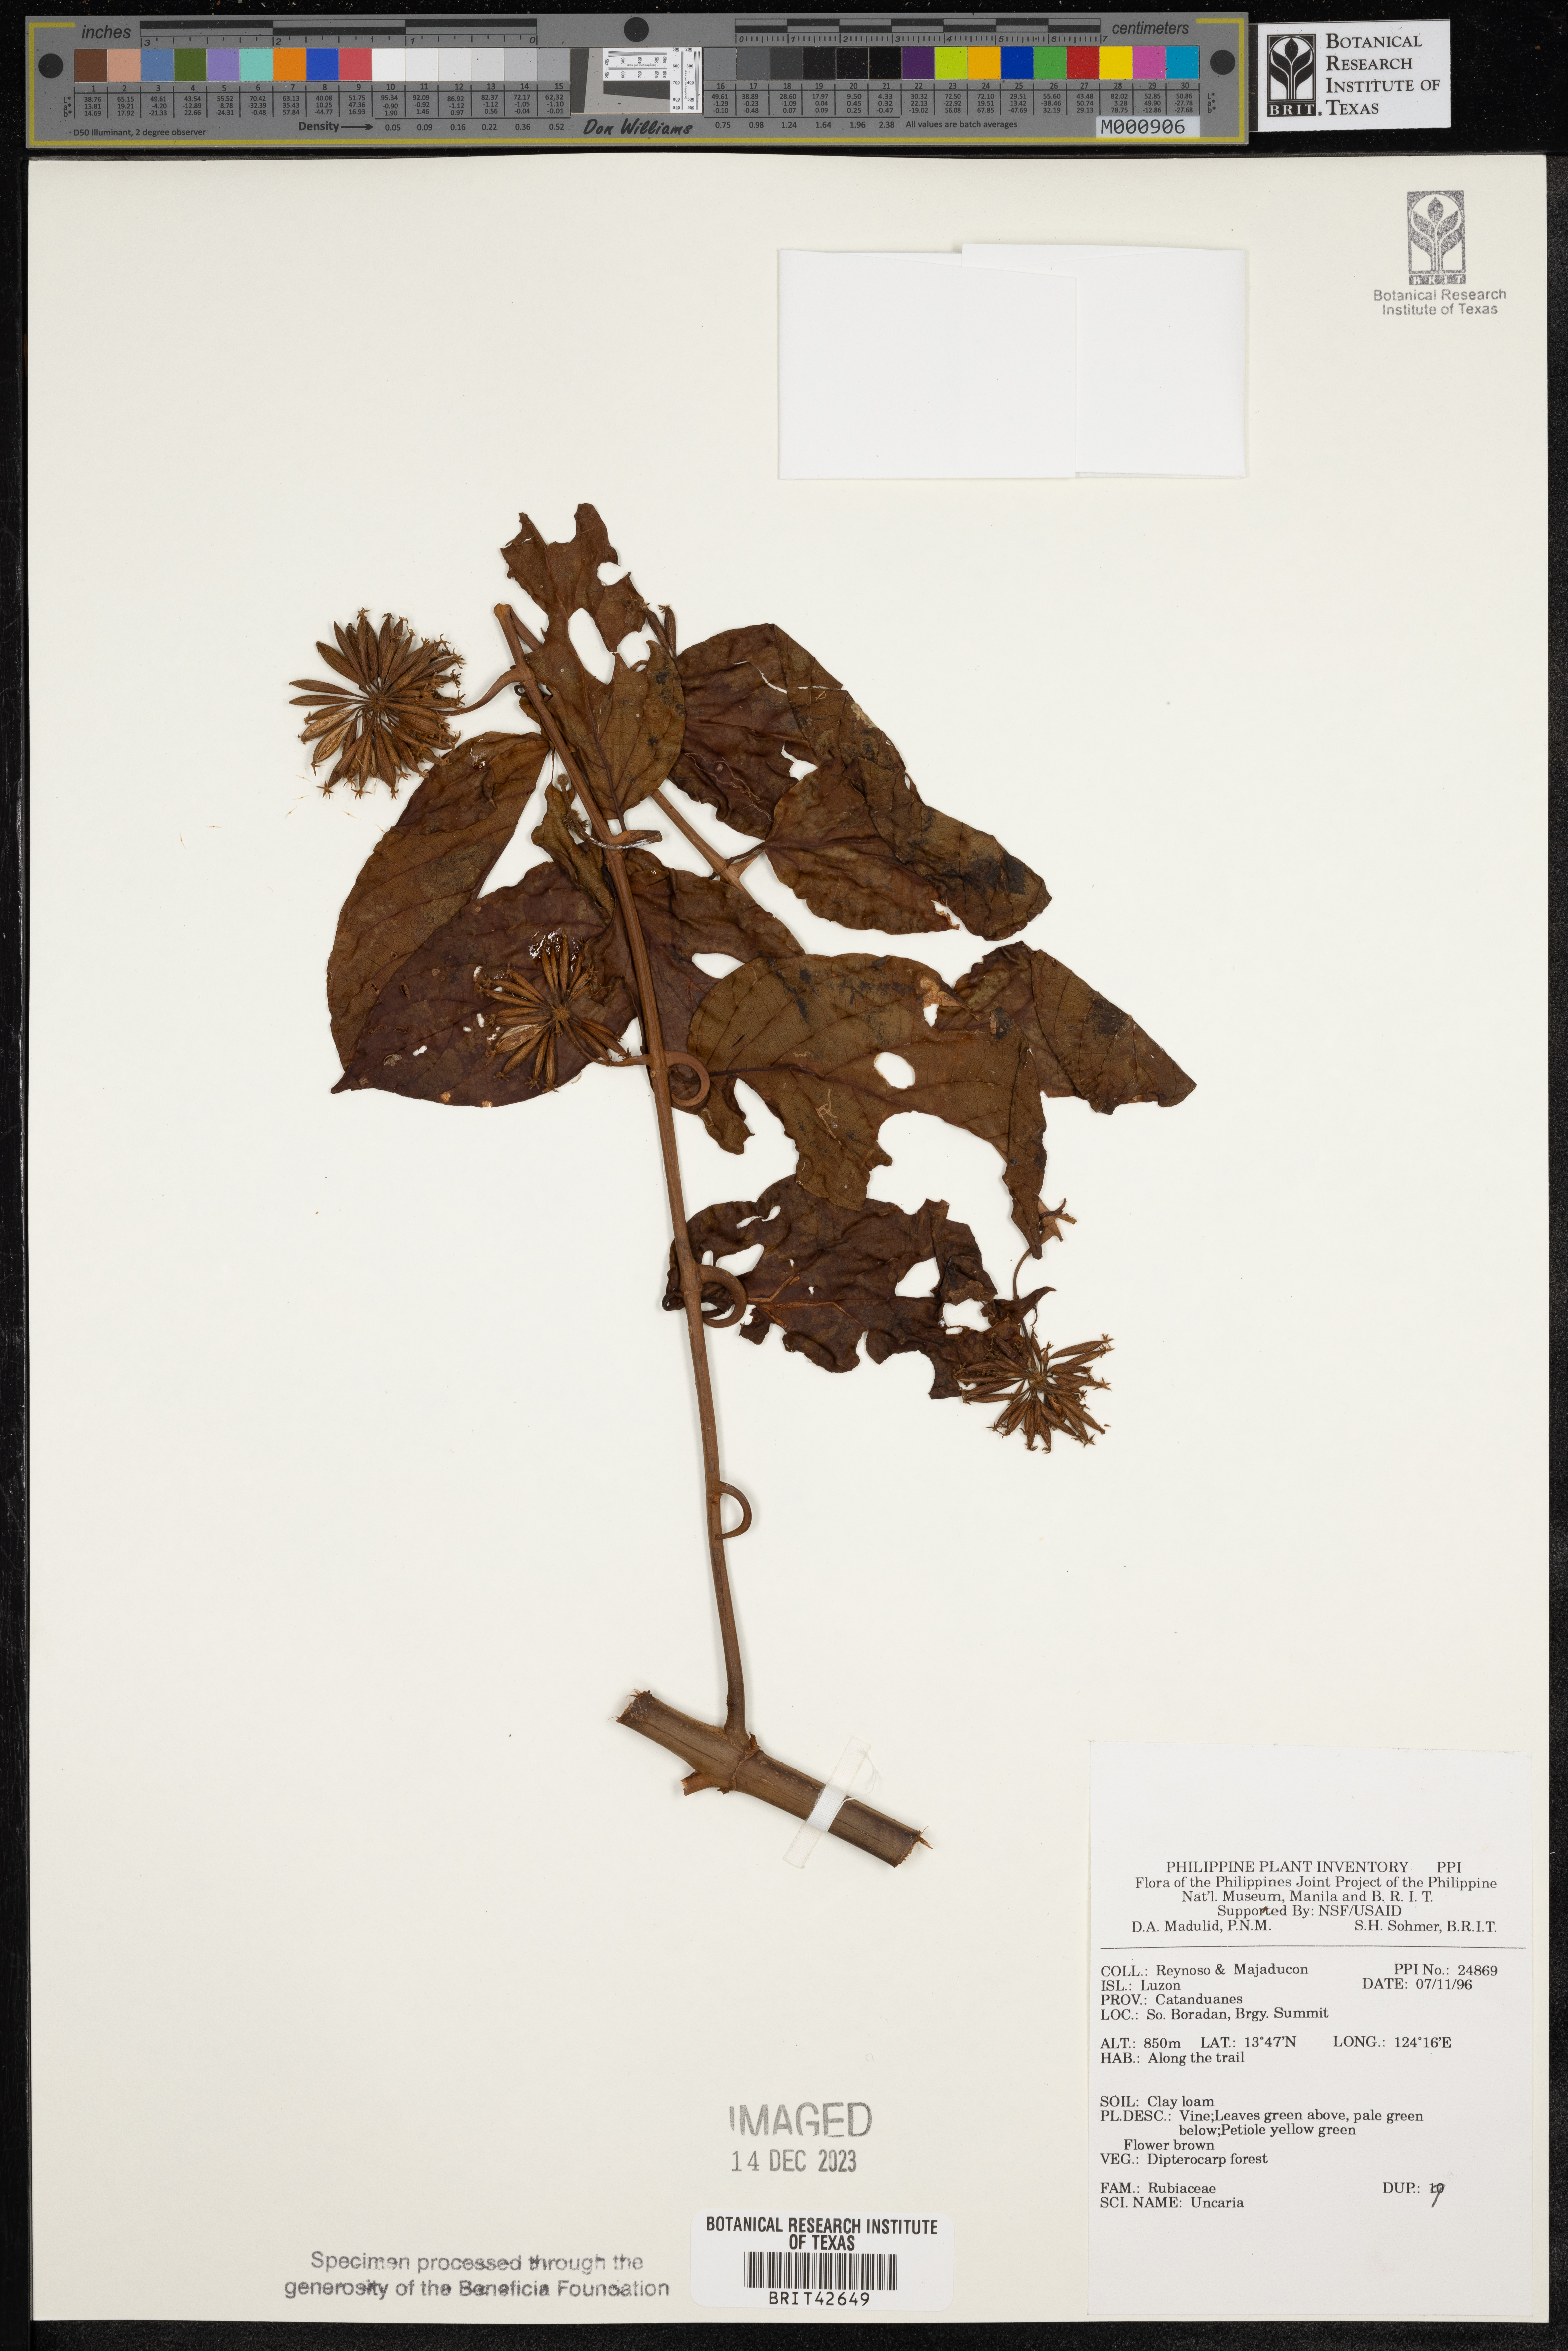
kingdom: Plantae
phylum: Tracheophyta
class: Magnoliopsida
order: Gentianales
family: Rubiaceae
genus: Uncaria
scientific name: Uncaria
